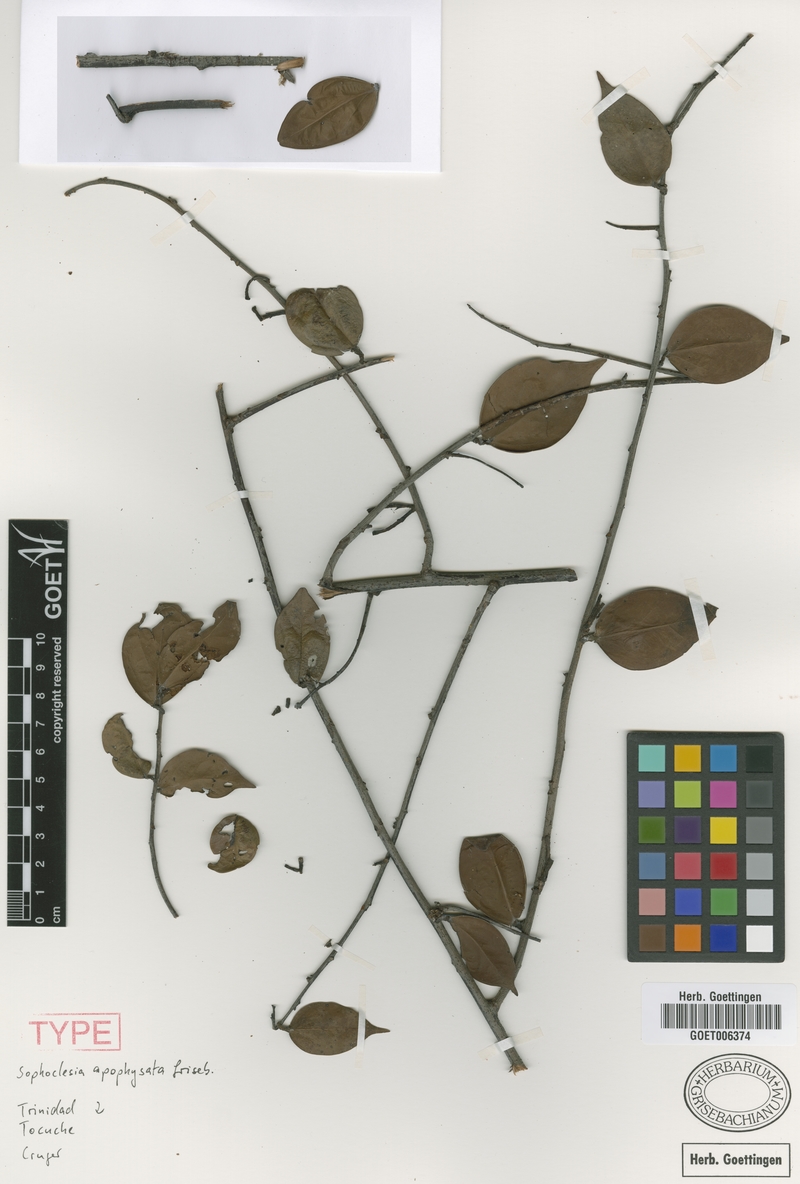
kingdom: Plantae
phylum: Tracheophyta
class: Magnoliopsida
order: Ericales
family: Ericaceae
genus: Orthaea
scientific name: Orthaea apophysata
